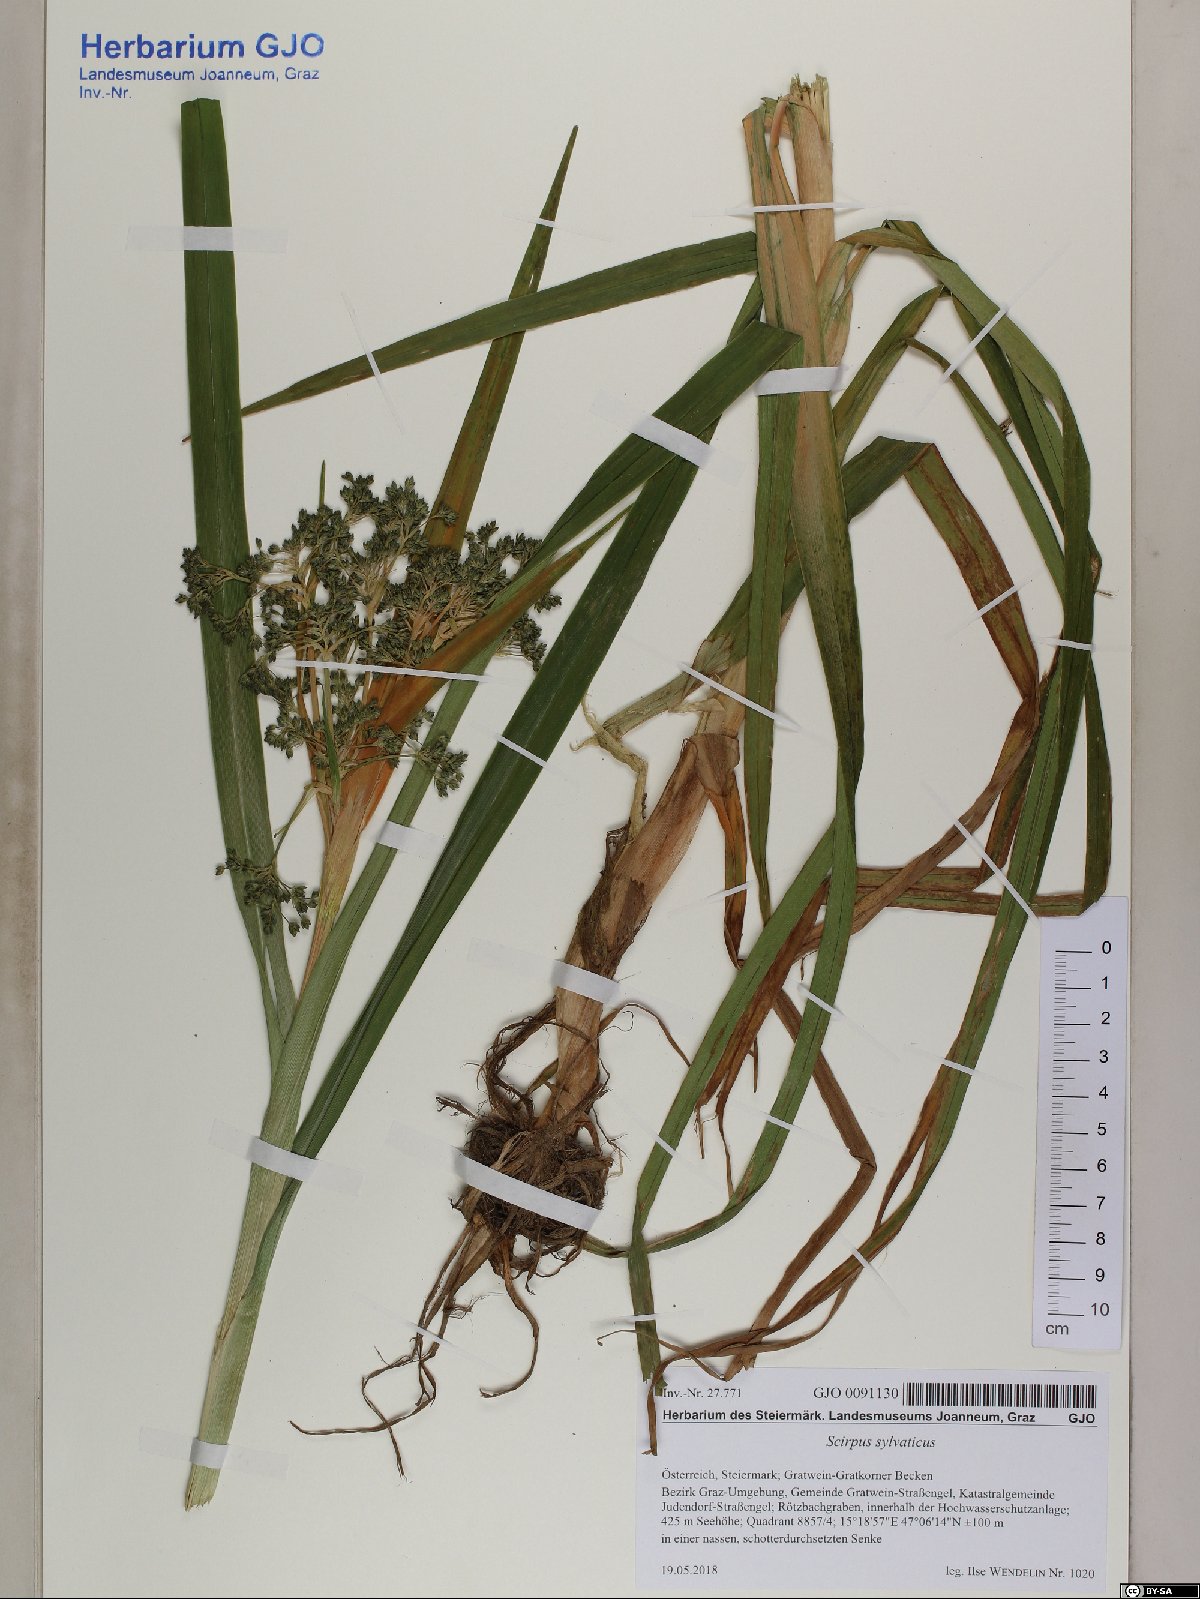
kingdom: Plantae
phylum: Tracheophyta
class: Liliopsida
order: Poales
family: Cyperaceae
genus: Scirpus
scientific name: Scirpus sylvaticus
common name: Wood club-rush
